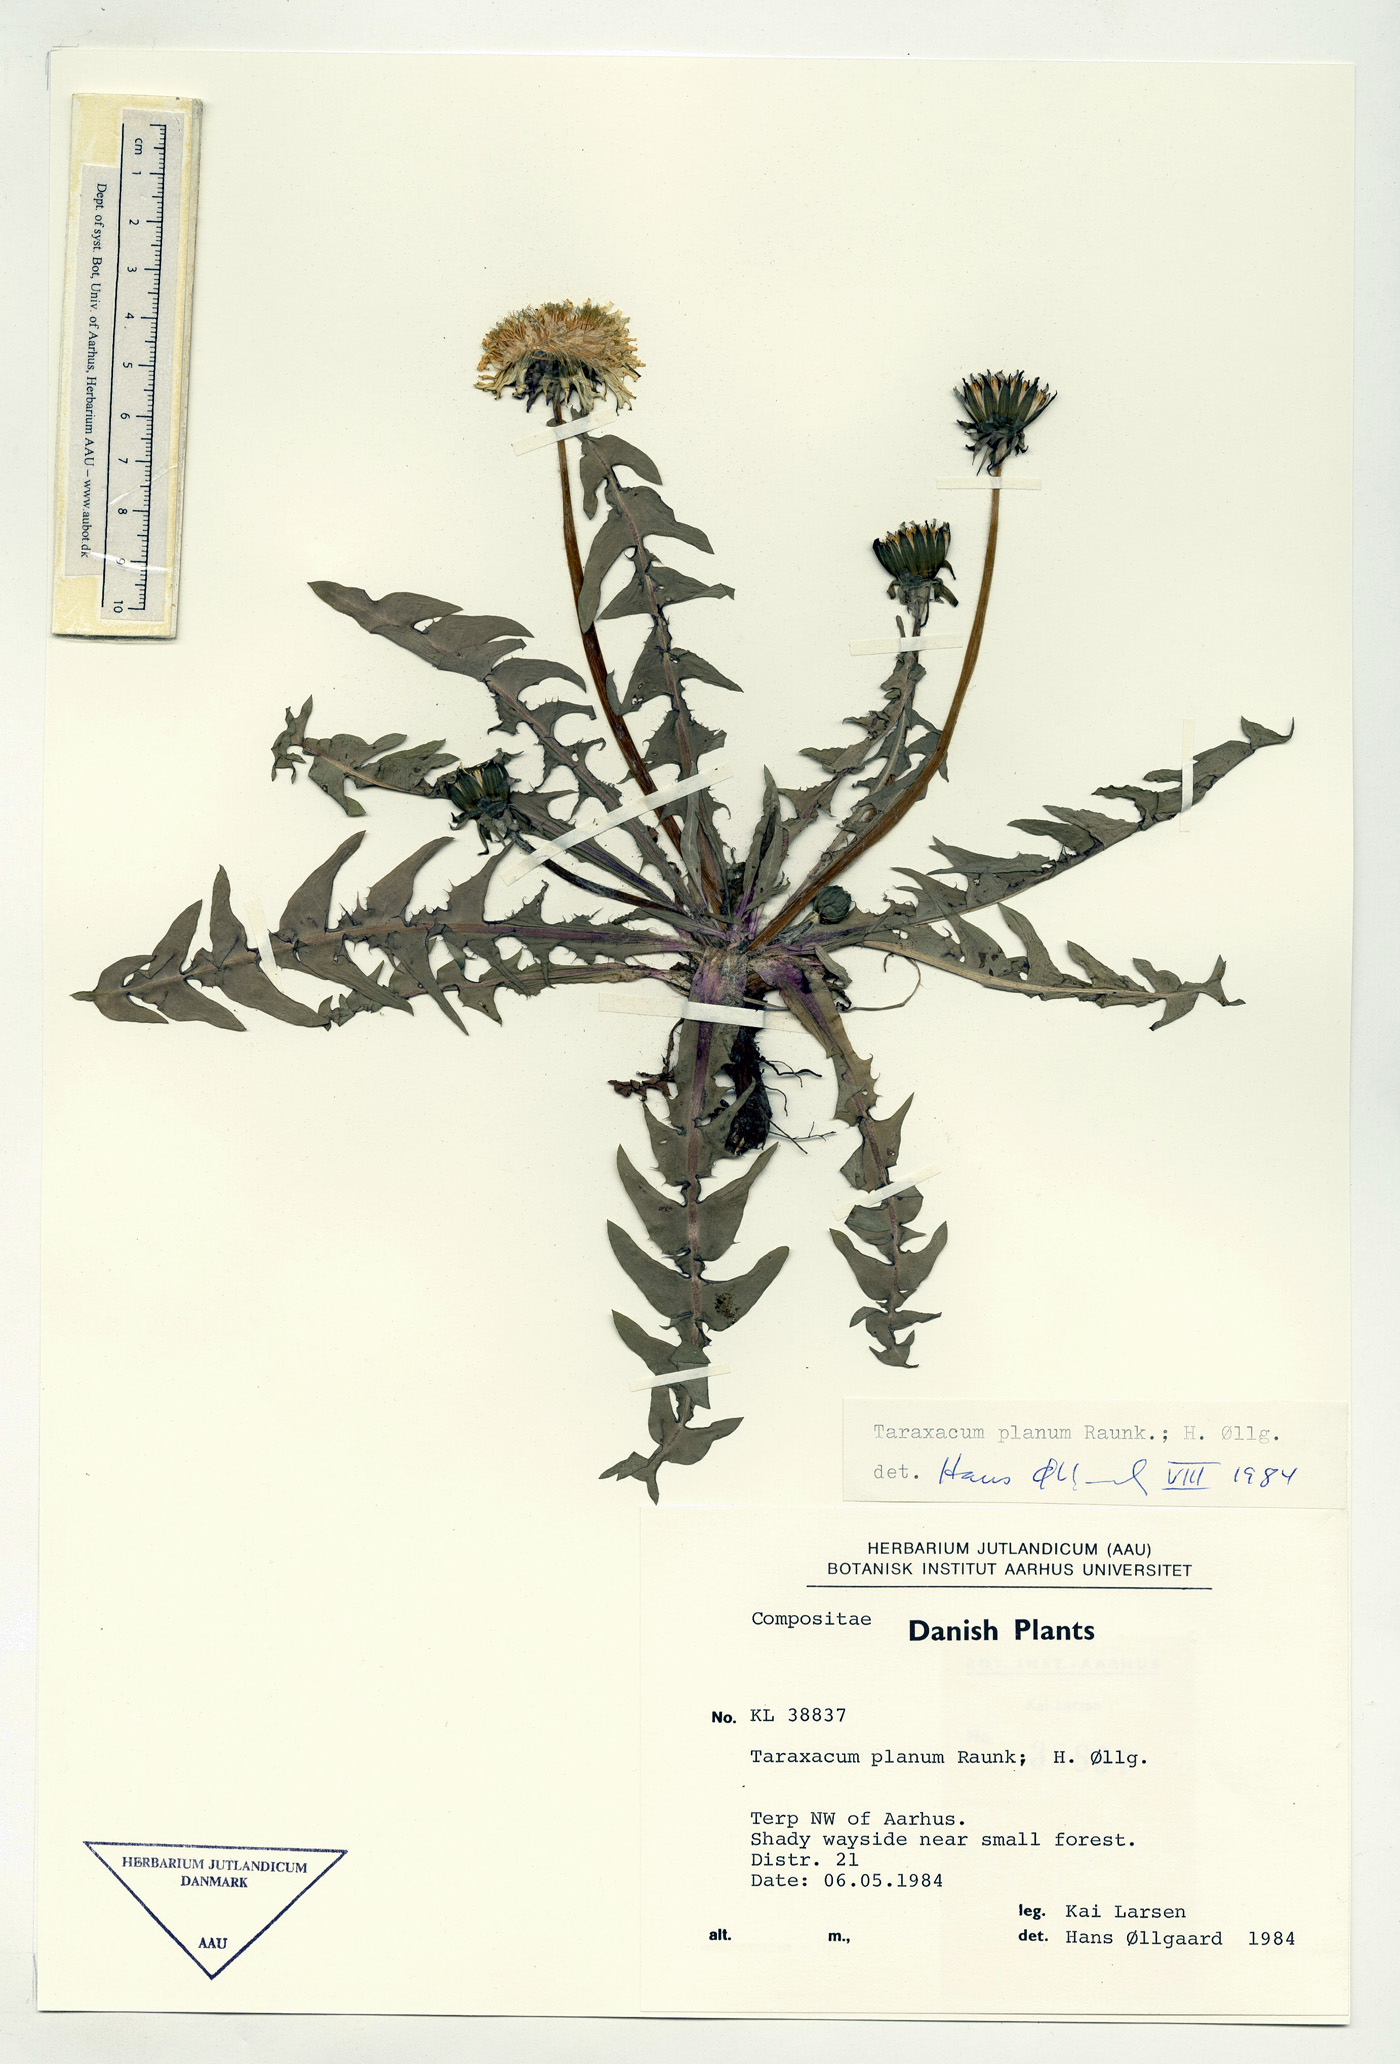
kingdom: Plantae
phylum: Tracheophyta
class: Magnoliopsida
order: Asterales
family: Asteraceae
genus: Taraxacum
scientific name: Taraxacum planum
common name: Diverse-leaved dandelion
